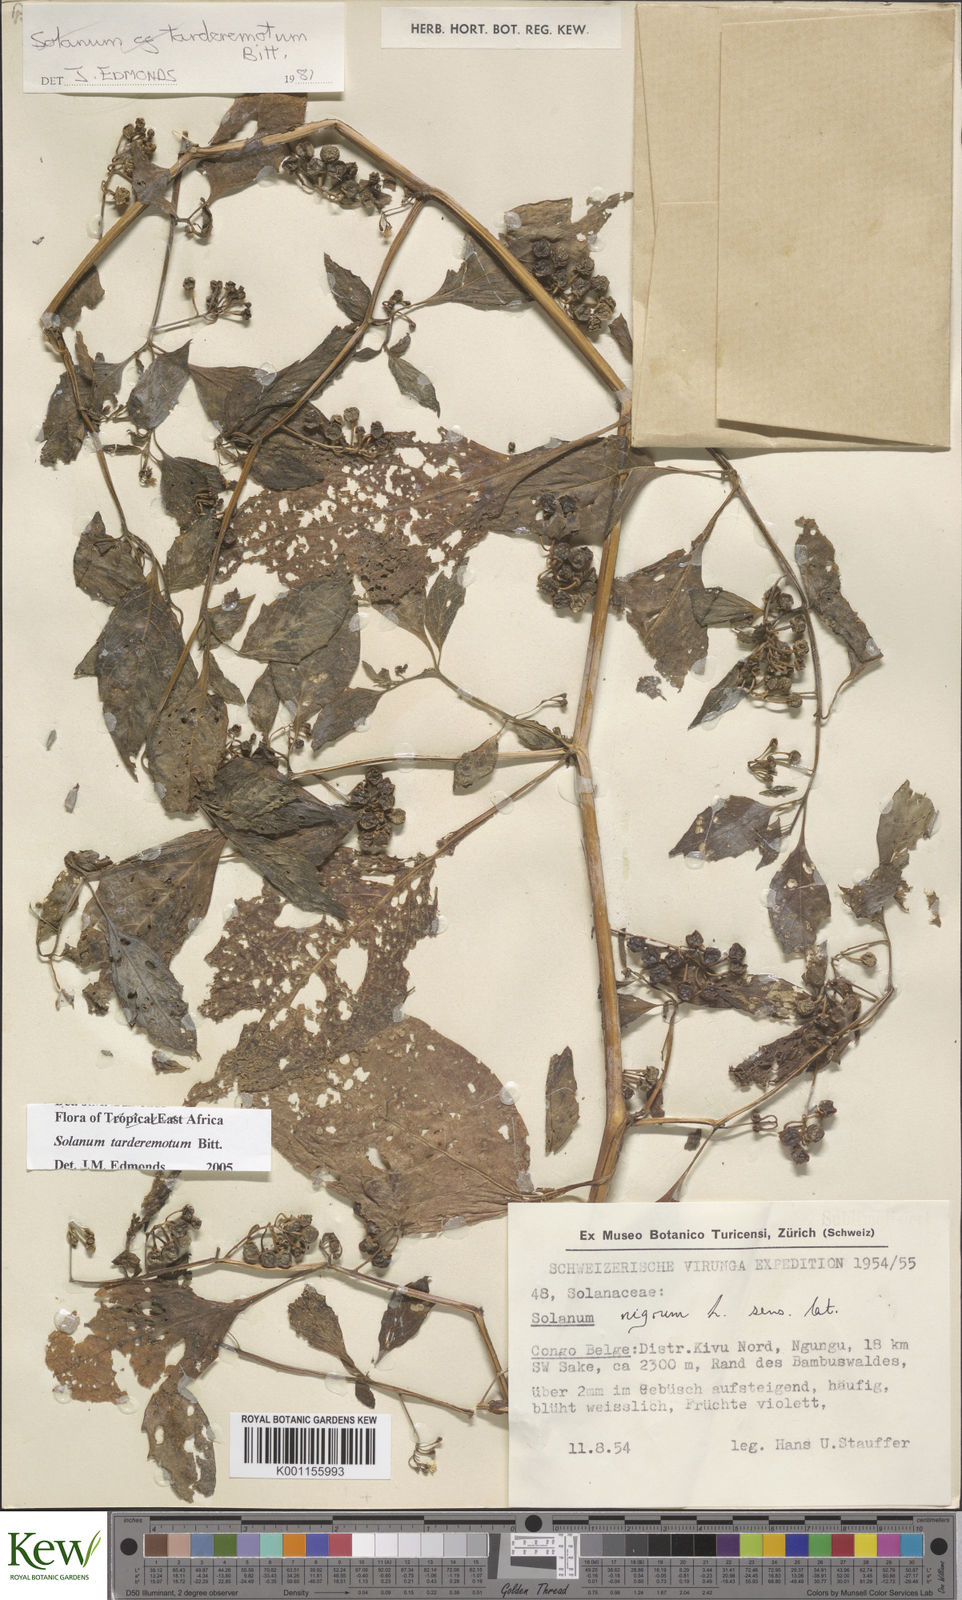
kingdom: Plantae
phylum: Tracheophyta
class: Magnoliopsida
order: Solanales
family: Solanaceae
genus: Solanum
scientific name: Solanum tarderemotum
